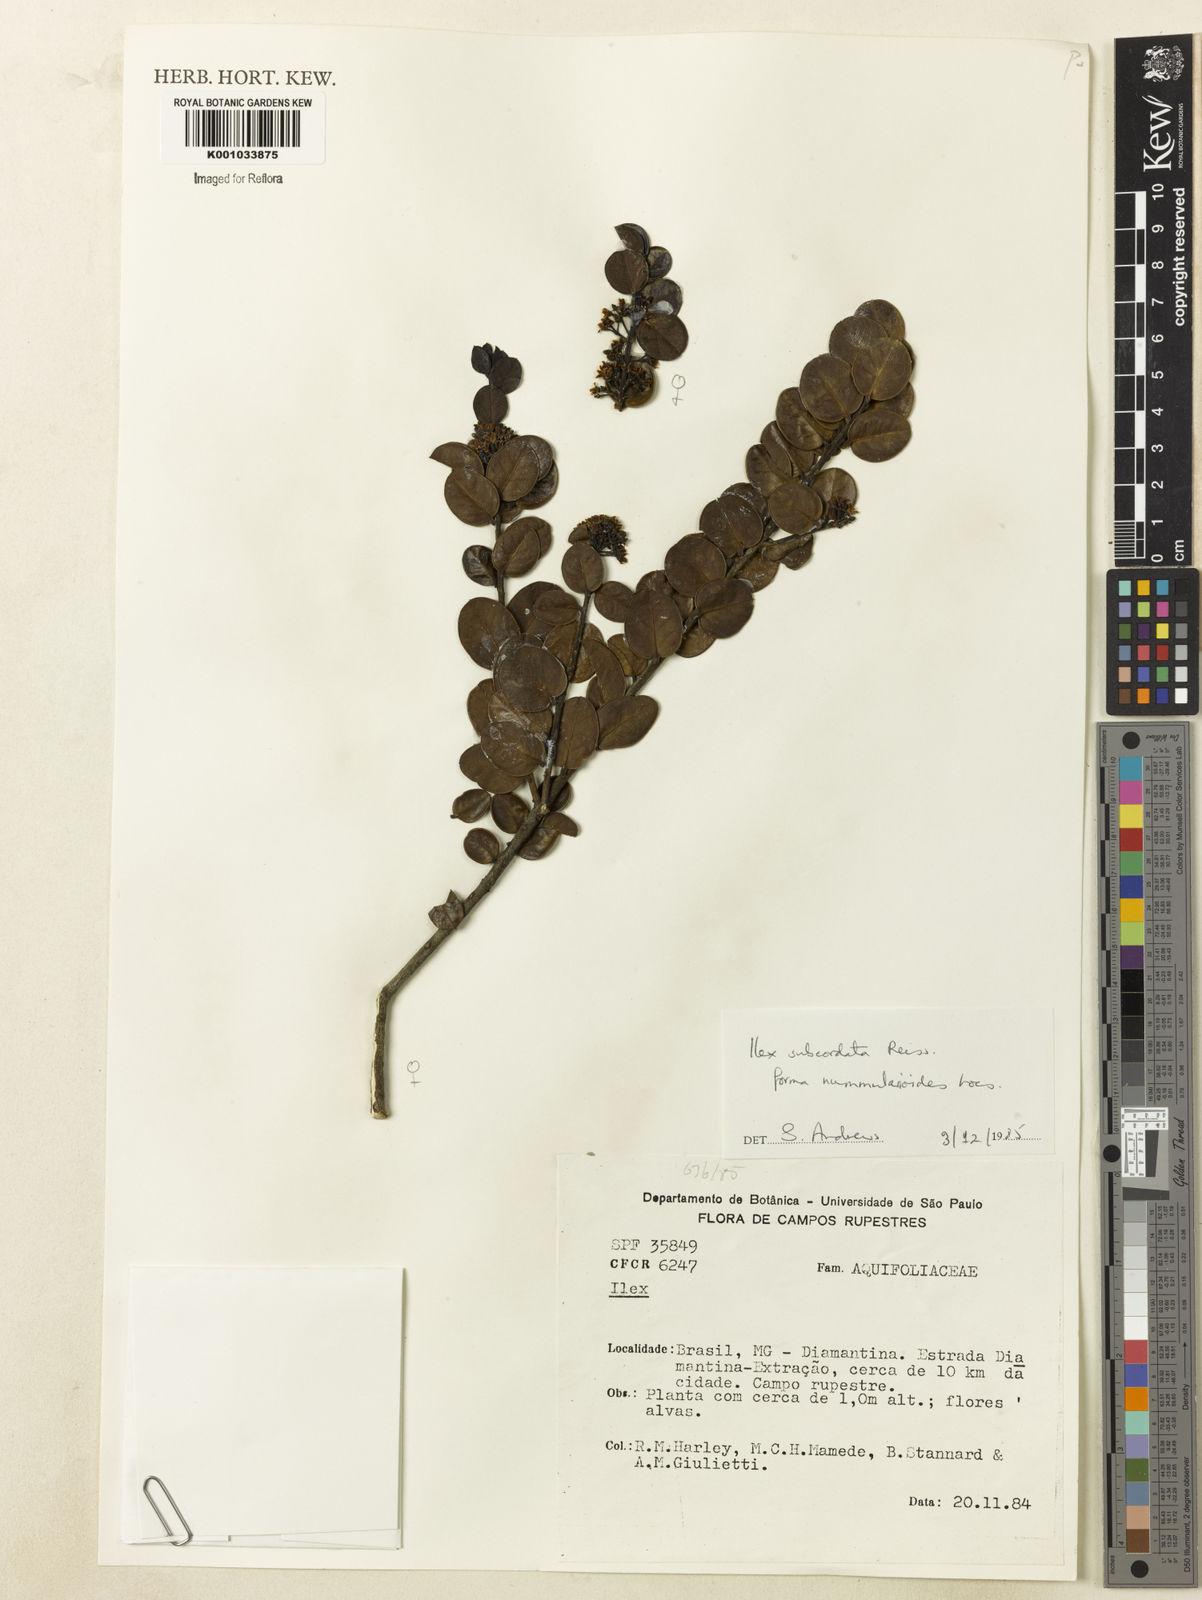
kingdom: Plantae
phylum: Tracheophyta
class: Magnoliopsida
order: Aquifoliales
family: Aquifoliaceae
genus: Ilex
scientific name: Ilex subcordata
